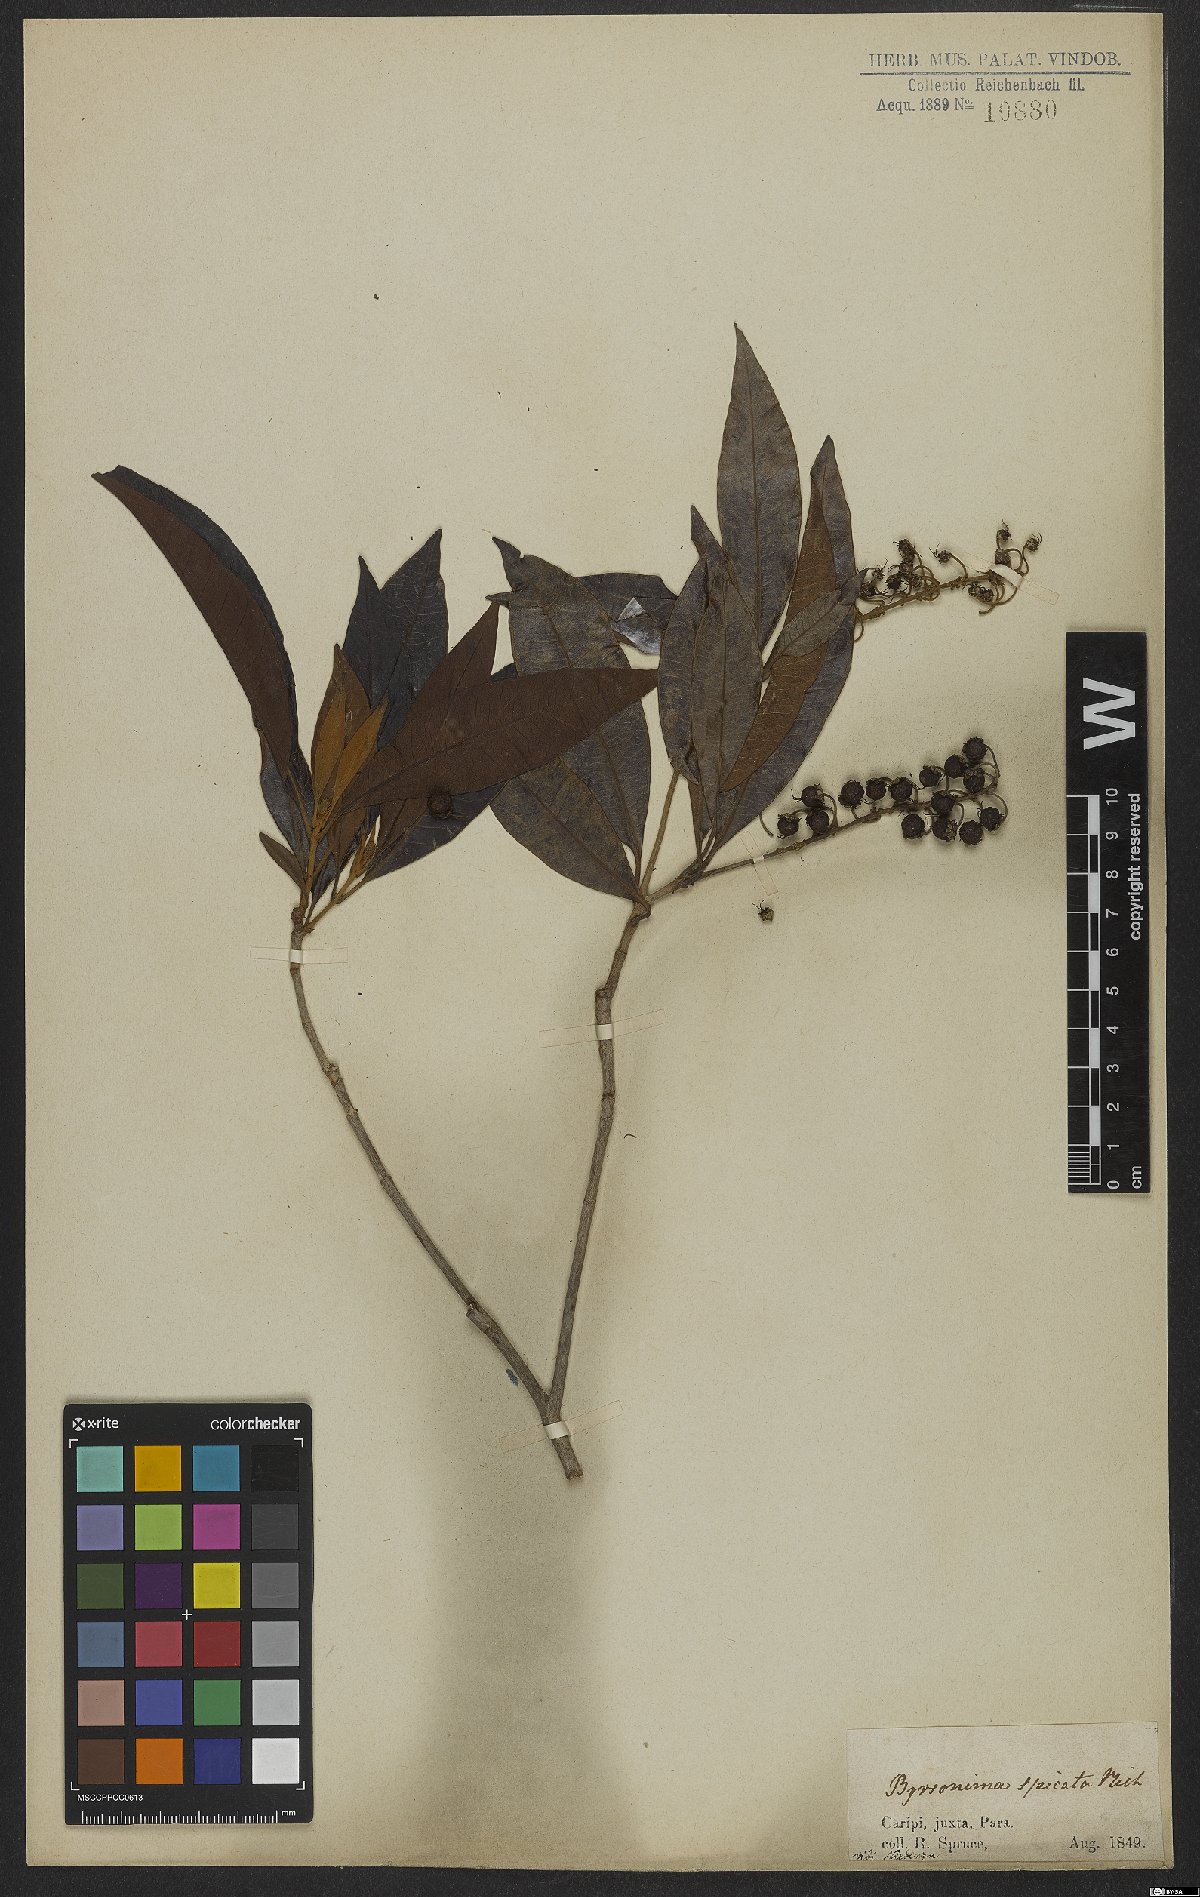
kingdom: Plantae
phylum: Tracheophyta
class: Magnoliopsida
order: Malpighiales
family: Malpighiaceae
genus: Byrsonima
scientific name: Byrsonima crassifolia
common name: Golden spoon
